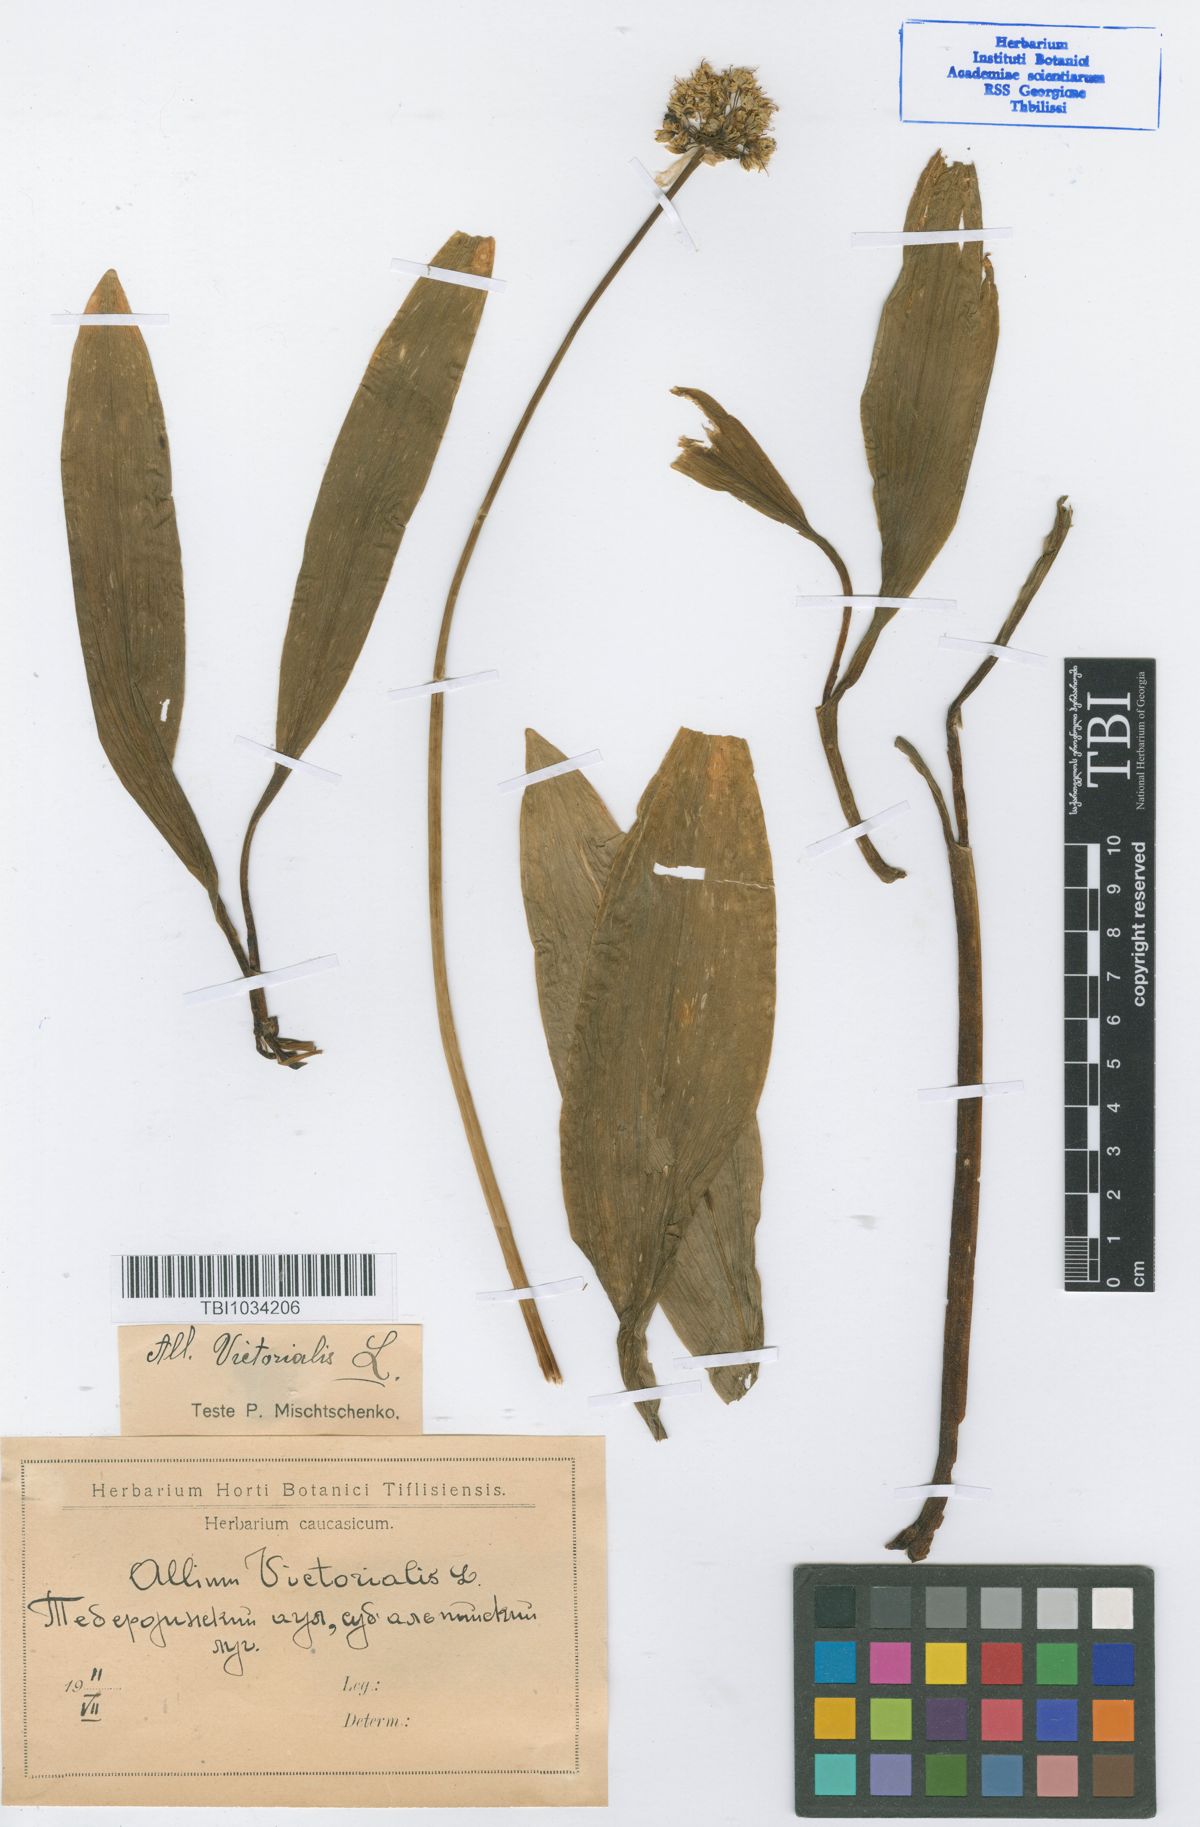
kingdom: Plantae
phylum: Tracheophyta
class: Liliopsida
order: Asparagales
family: Amaryllidaceae
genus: Allium
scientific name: Allium victorialis
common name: Alpine leek
